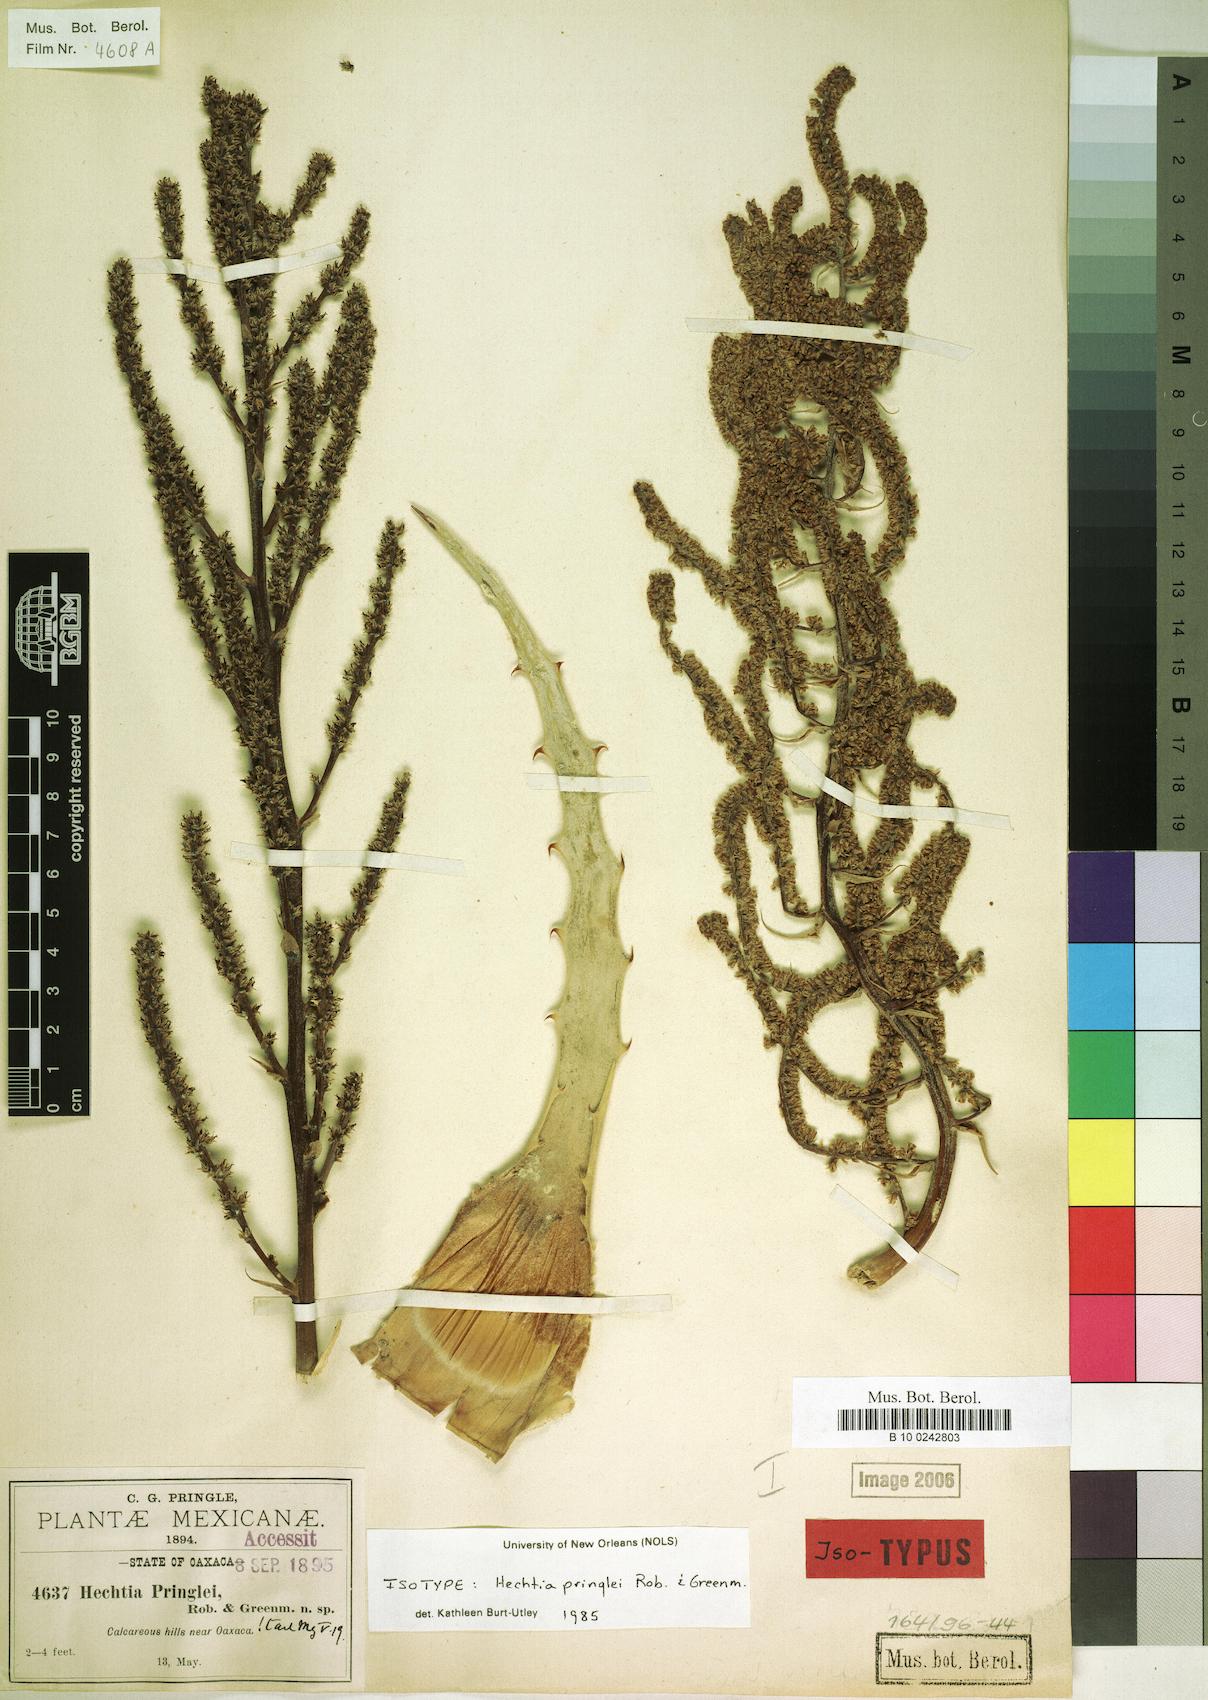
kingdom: Plantae
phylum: Tracheophyta
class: Liliopsida
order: Poales
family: Bromeliaceae
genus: Hechtia
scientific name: Hechtia pringlei
